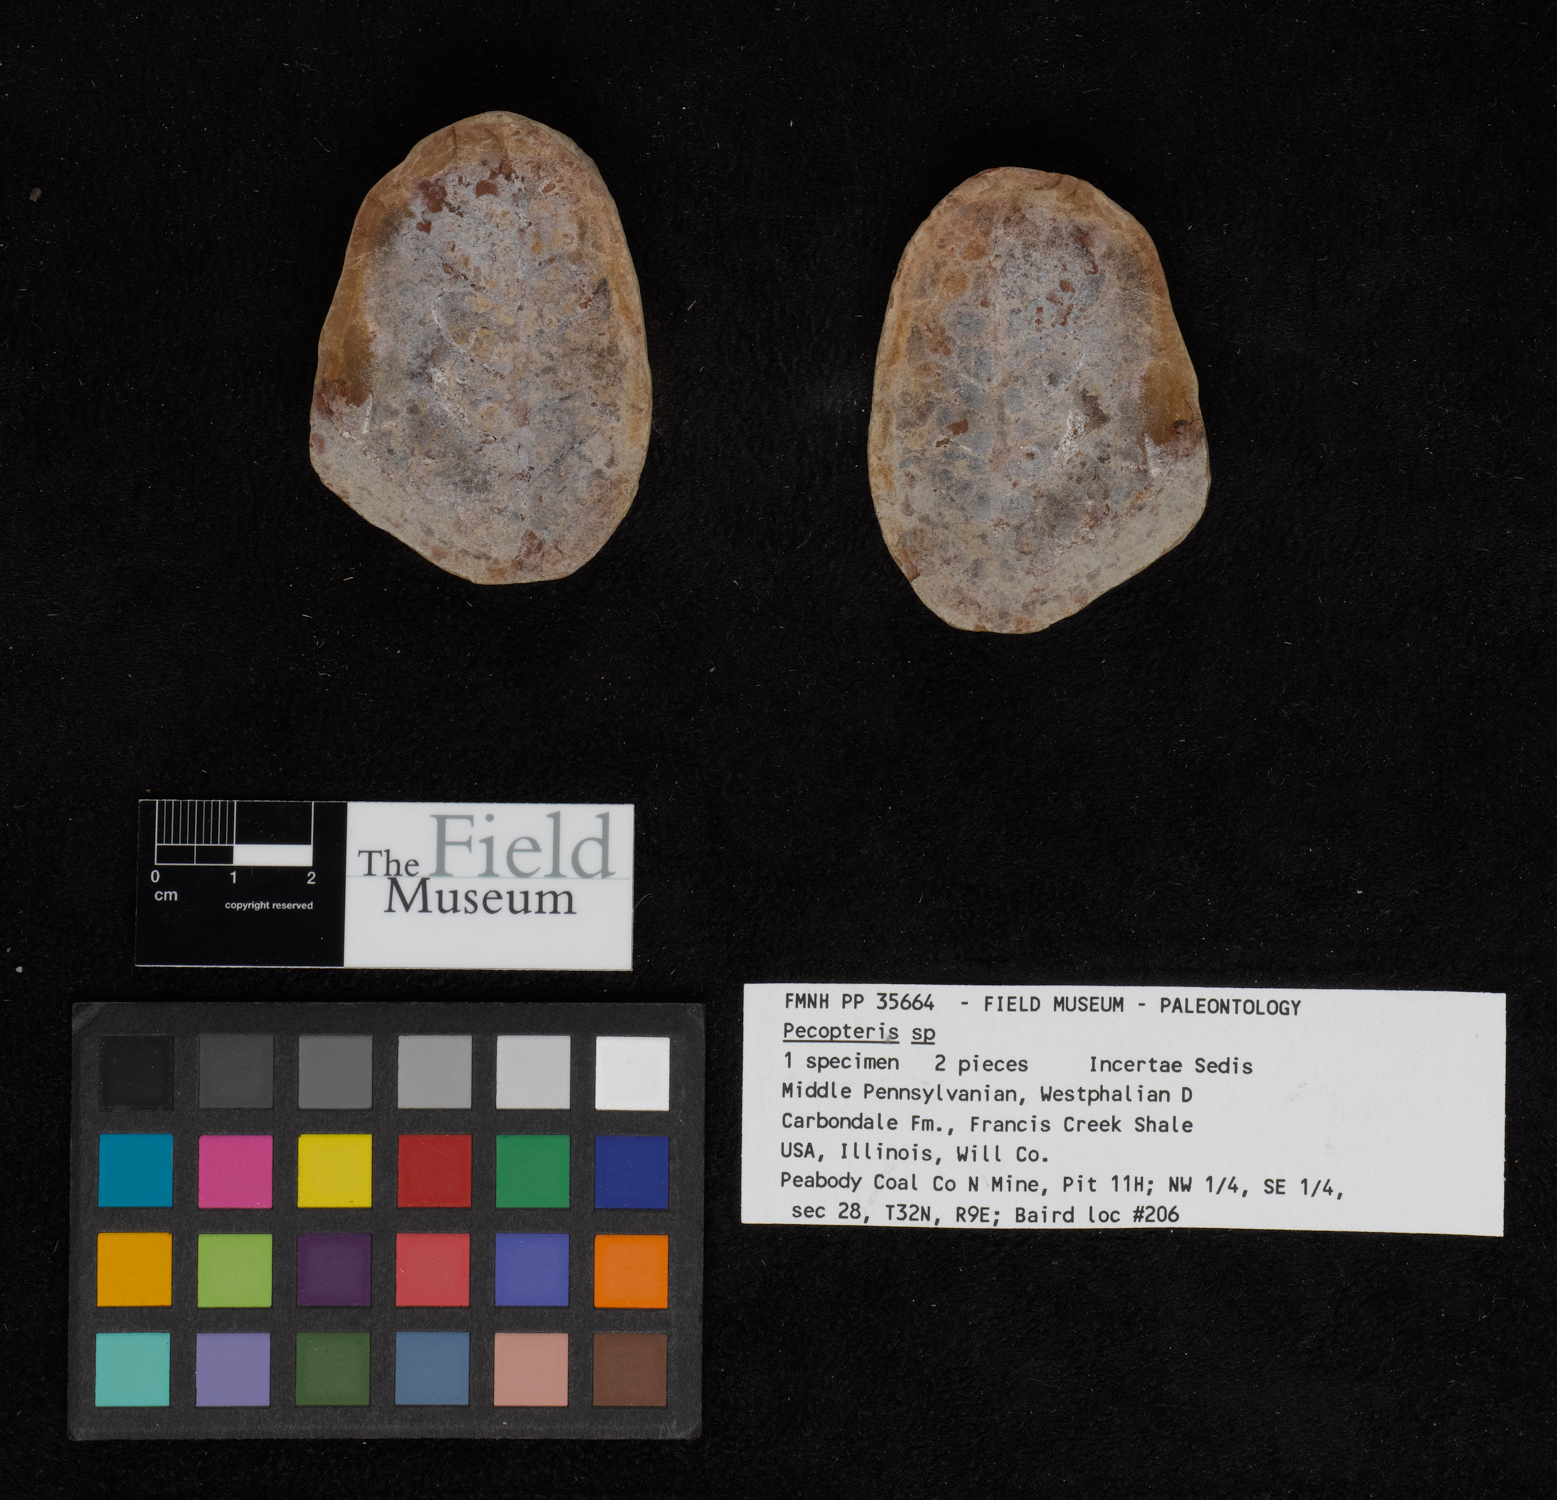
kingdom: Plantae
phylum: Tracheophyta
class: Polypodiopsida
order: Marattiales
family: Asterothecaceae
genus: Pecopteris
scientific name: Pecopteris
